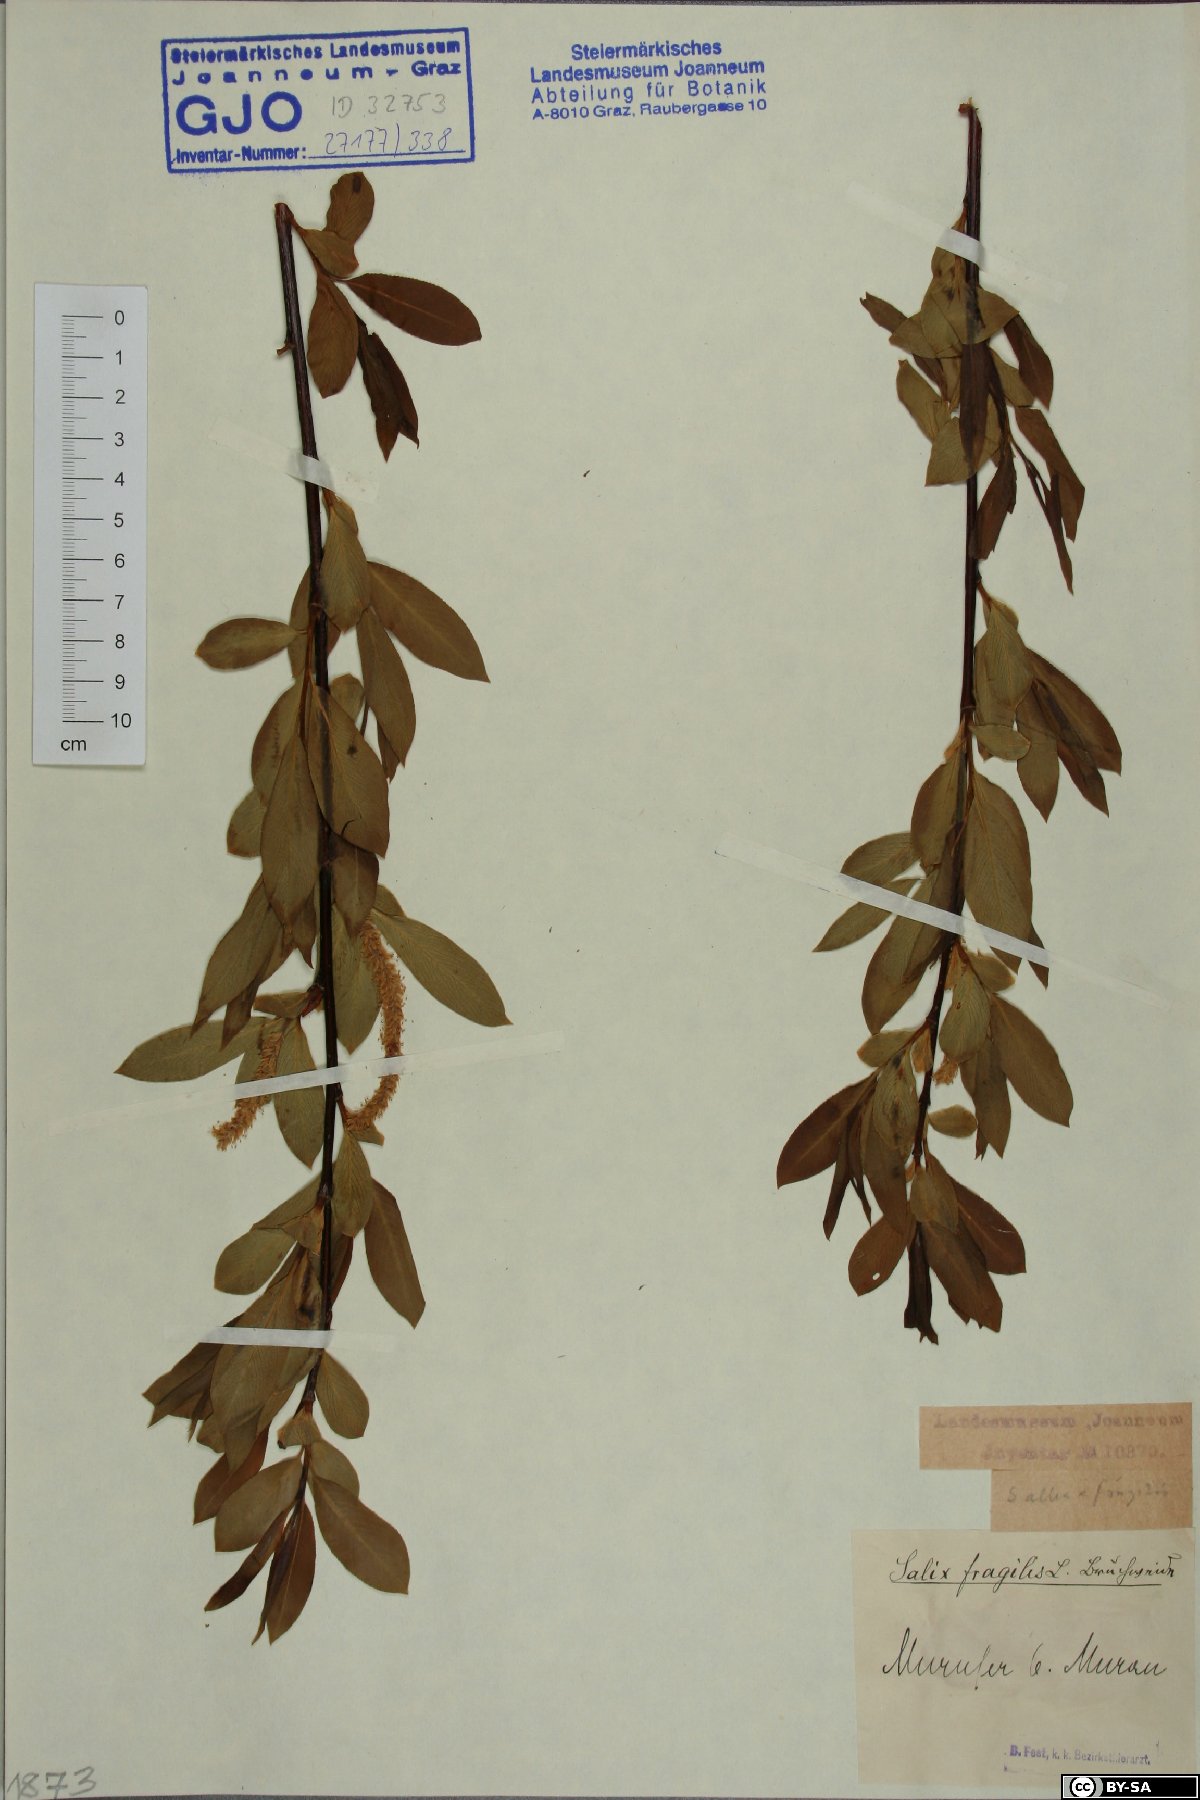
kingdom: Plantae
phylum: Tracheophyta
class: Magnoliopsida
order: Malpighiales
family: Salicaceae
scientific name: Salicaceae
